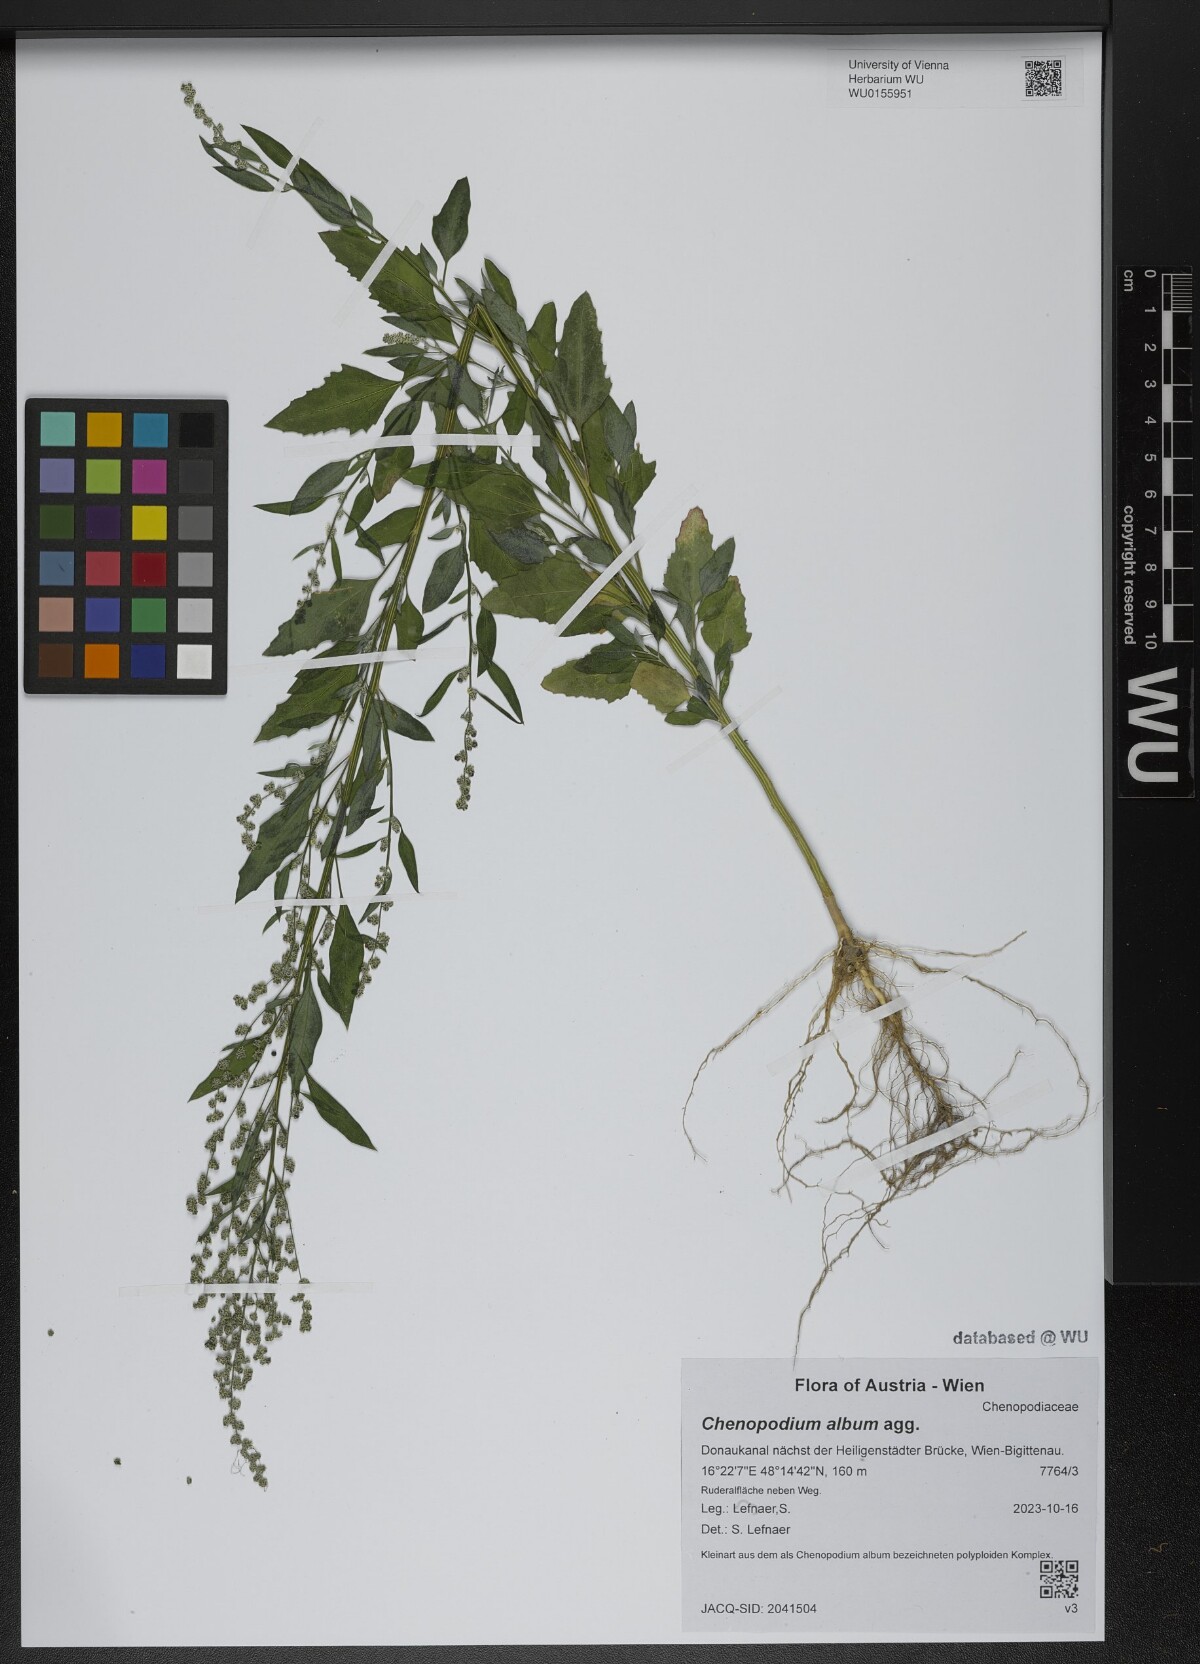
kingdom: Plantae
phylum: Tracheophyta
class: Magnoliopsida
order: Caryophyllales
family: Amaranthaceae
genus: Chenopodium
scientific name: Chenopodium album
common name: Fat-hen
